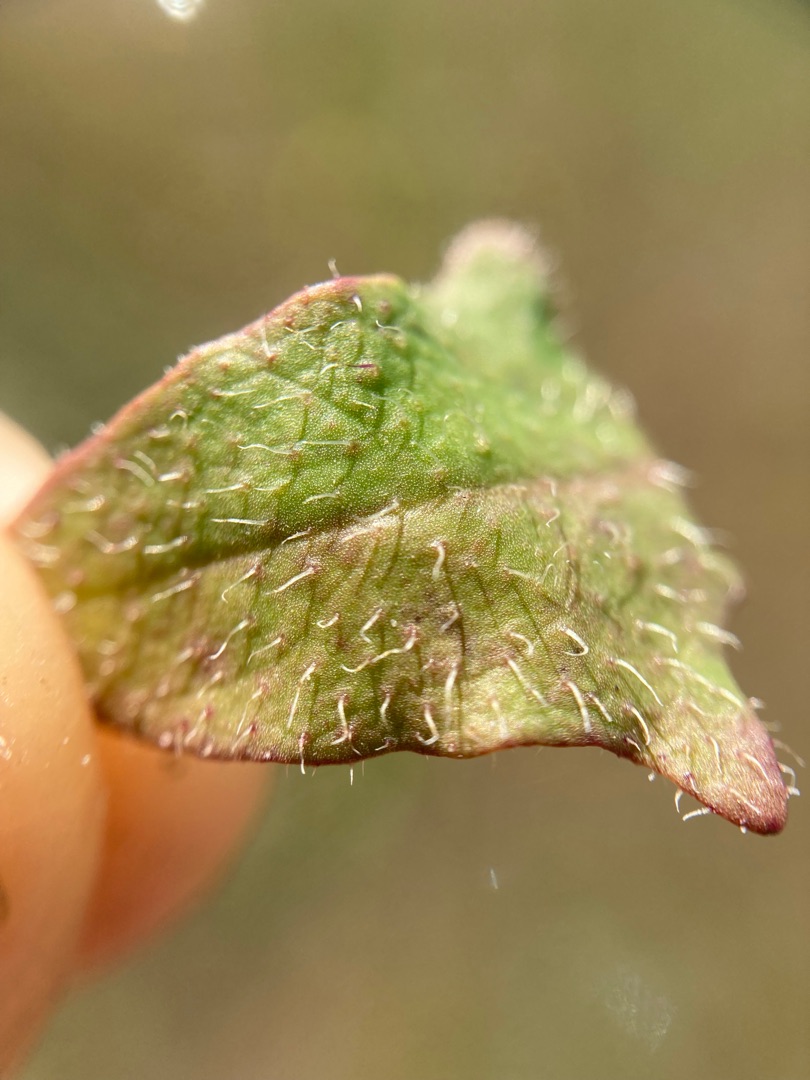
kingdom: Plantae
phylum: Tracheophyta
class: Magnoliopsida
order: Asterales
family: Asteraceae
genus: Hypochaeris
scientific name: Hypochaeris radicata
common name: Almindelig kongepen
